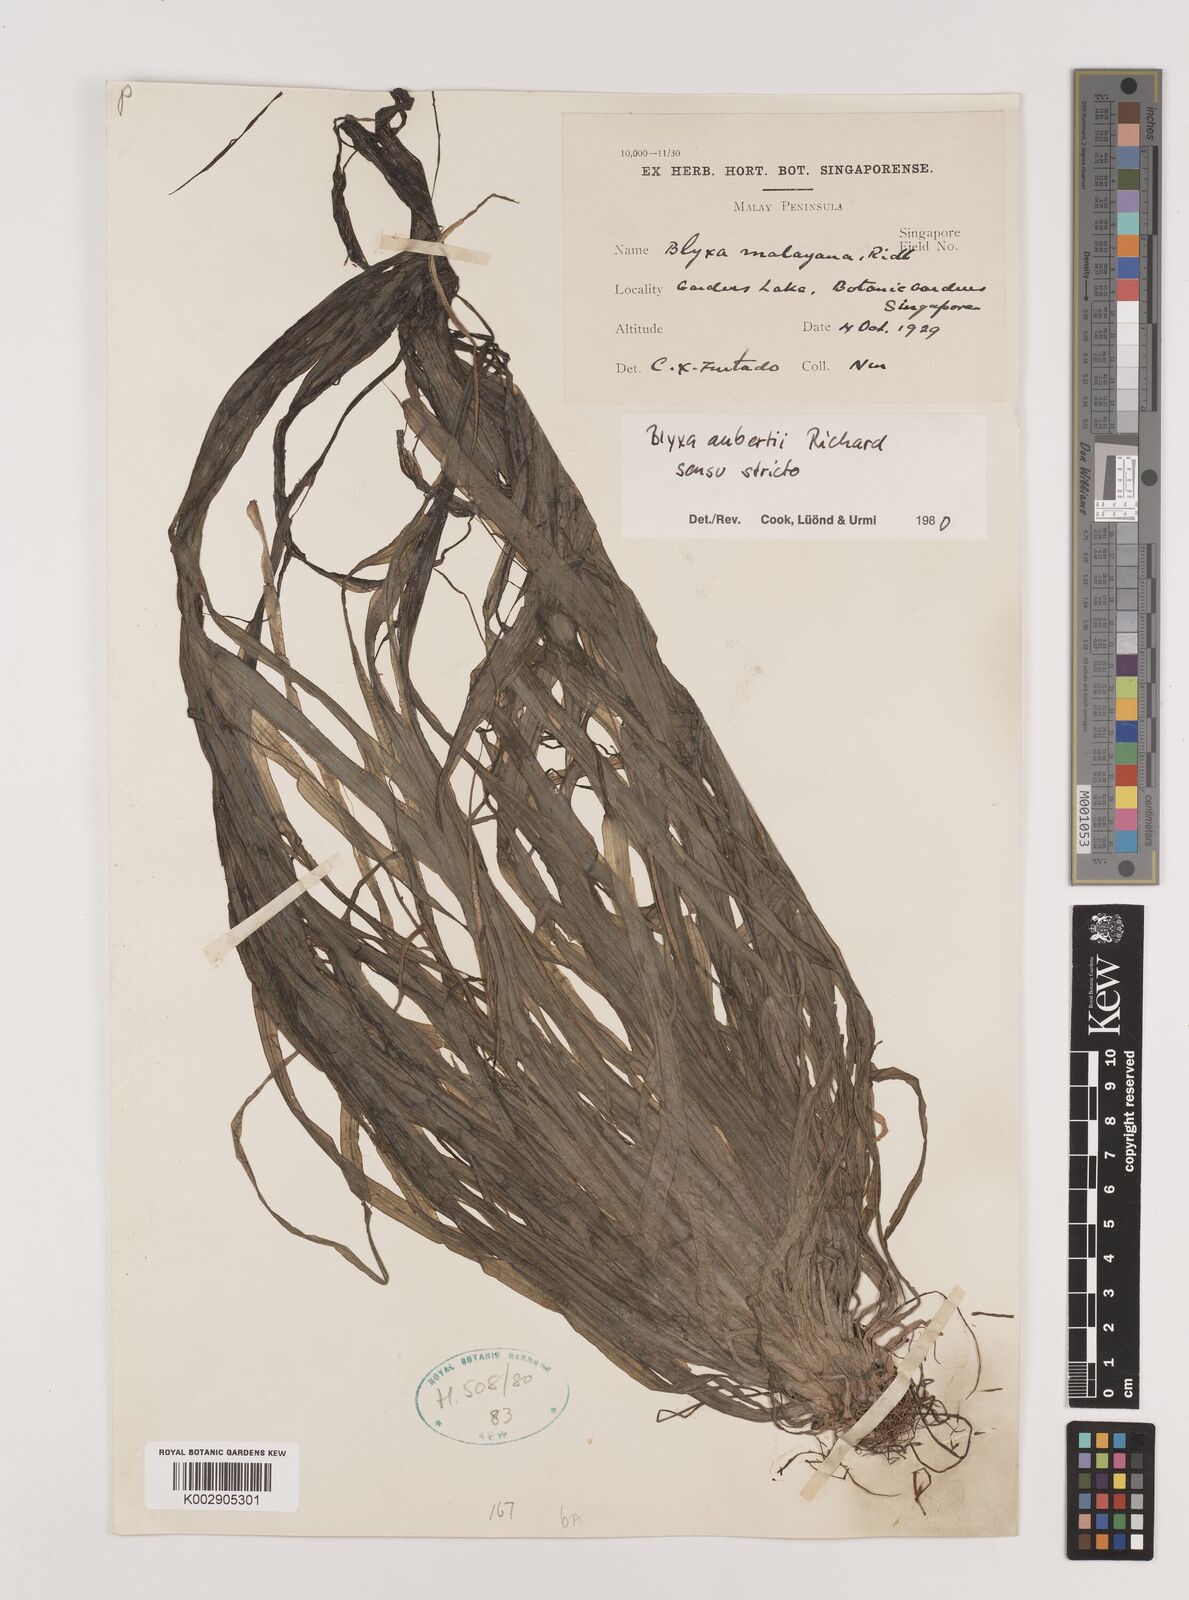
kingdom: Plantae
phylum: Tracheophyta
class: Liliopsida
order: Alismatales
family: Hydrocharitaceae
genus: Blyxa
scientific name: Blyxa aubertii
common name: Roundfruit blyxa
